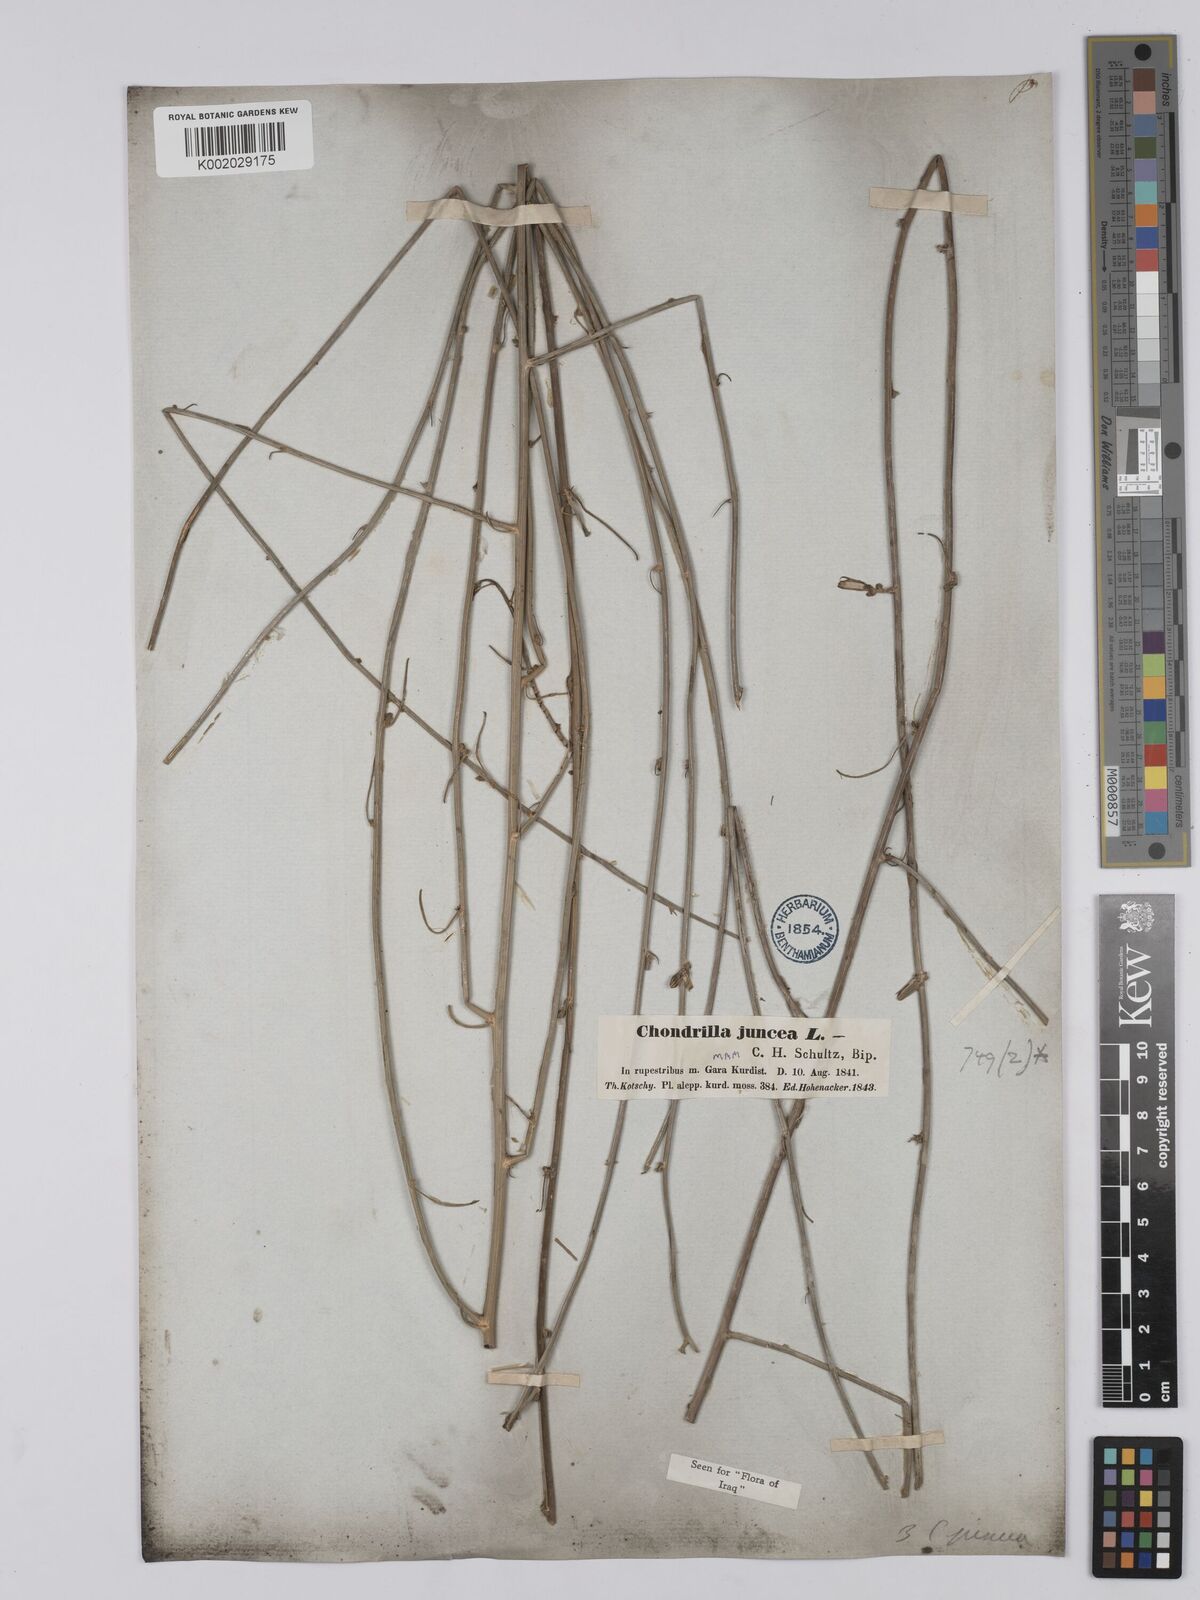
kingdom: Plantae
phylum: Tracheophyta
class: Magnoliopsida
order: Asterales
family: Asteraceae
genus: Chondrilla
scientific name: Chondrilla juncea
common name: Skeleton weed
